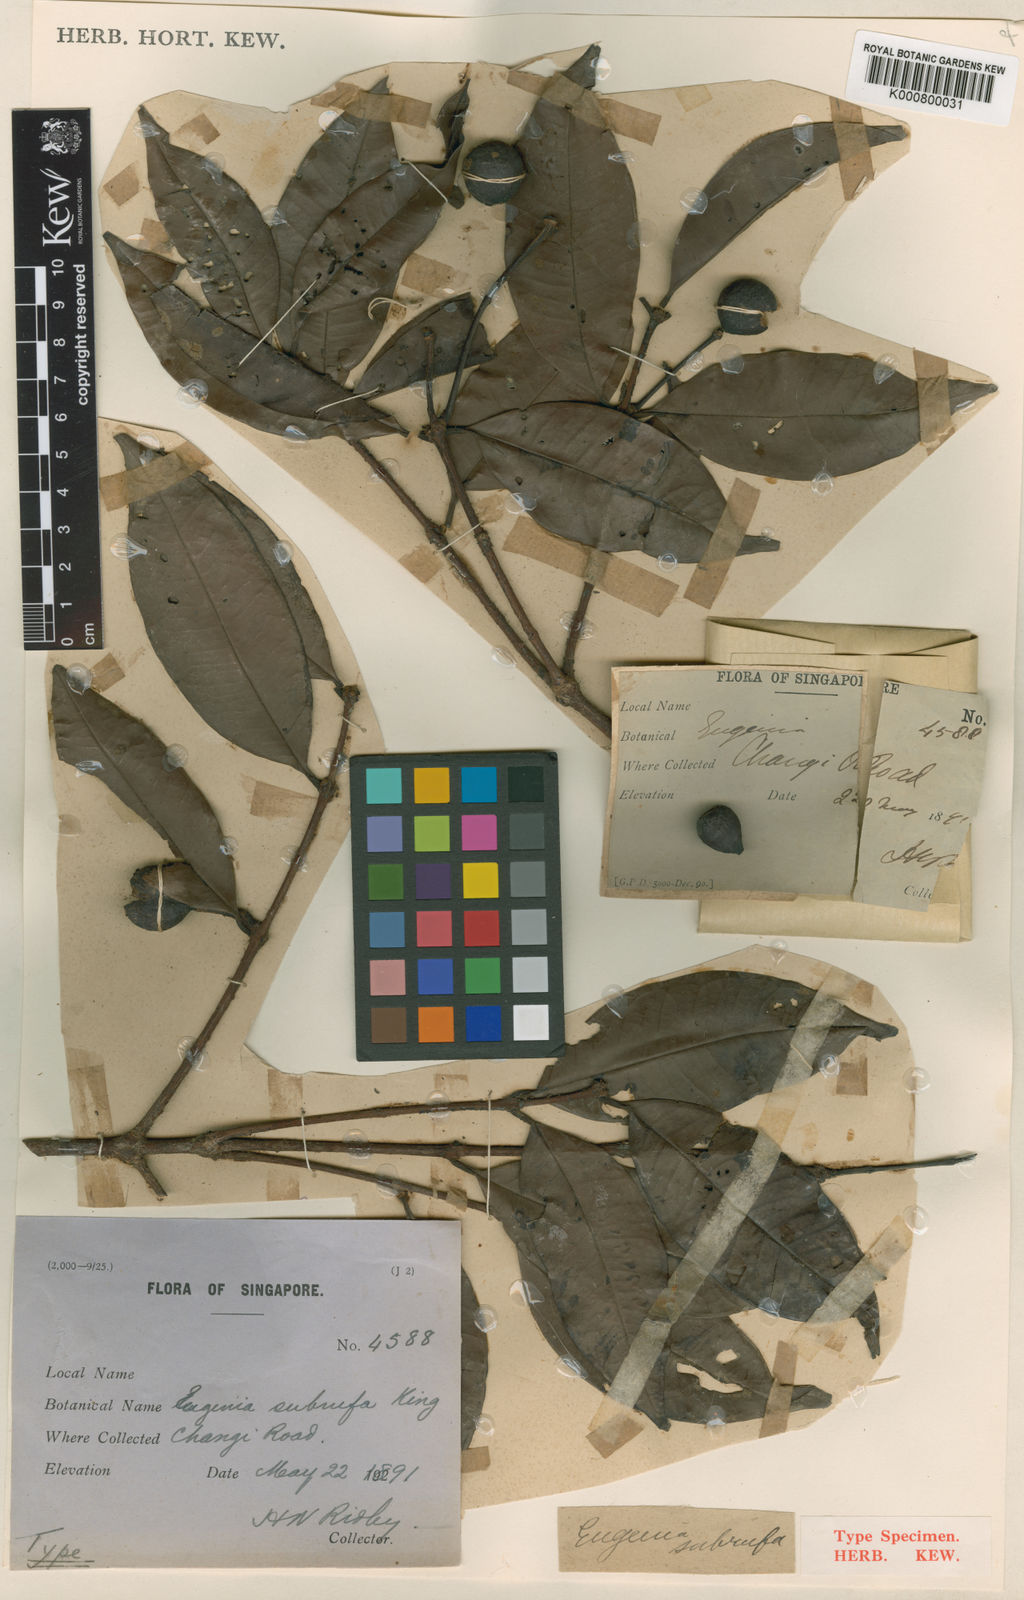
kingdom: Plantae
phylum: Tracheophyta
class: Magnoliopsida
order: Myrtales
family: Myrtaceae
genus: Syzygium
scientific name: Syzygium griffithii
